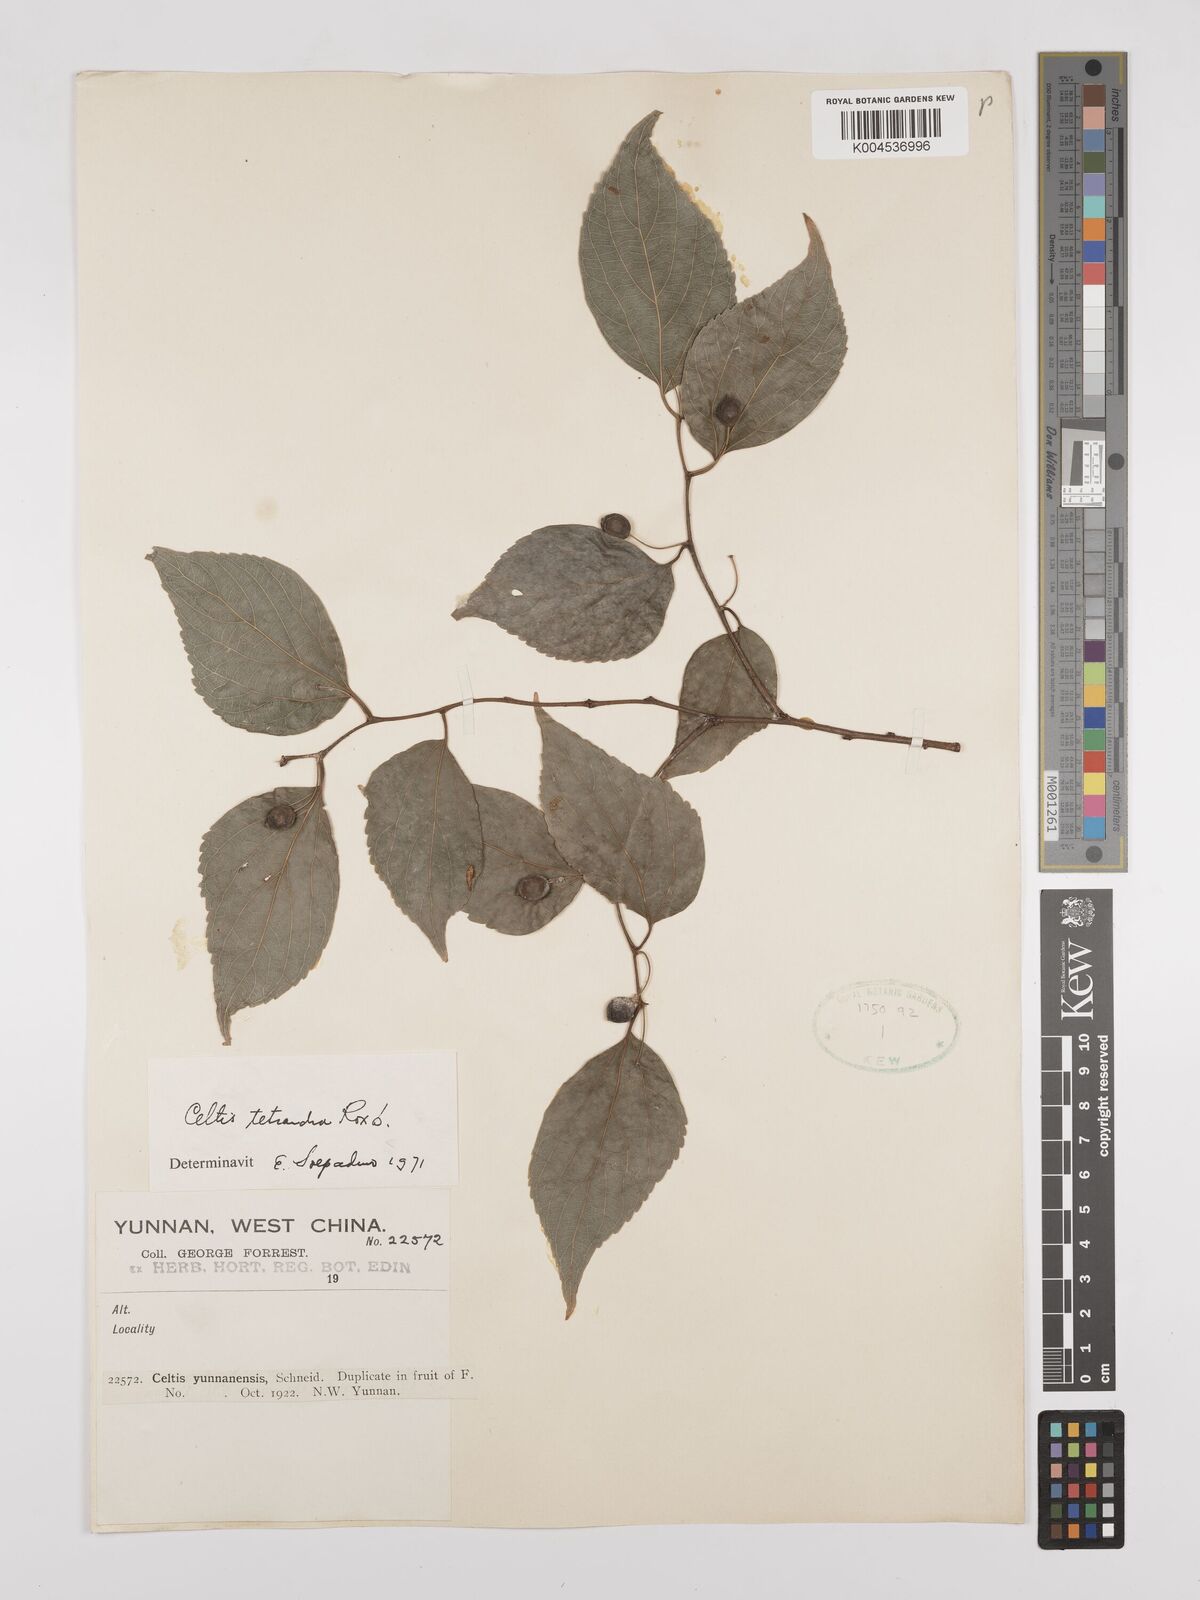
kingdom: Plantae
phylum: Tracheophyta
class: Magnoliopsida
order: Rosales
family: Cannabaceae
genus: Celtis
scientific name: Celtis tetrandra
